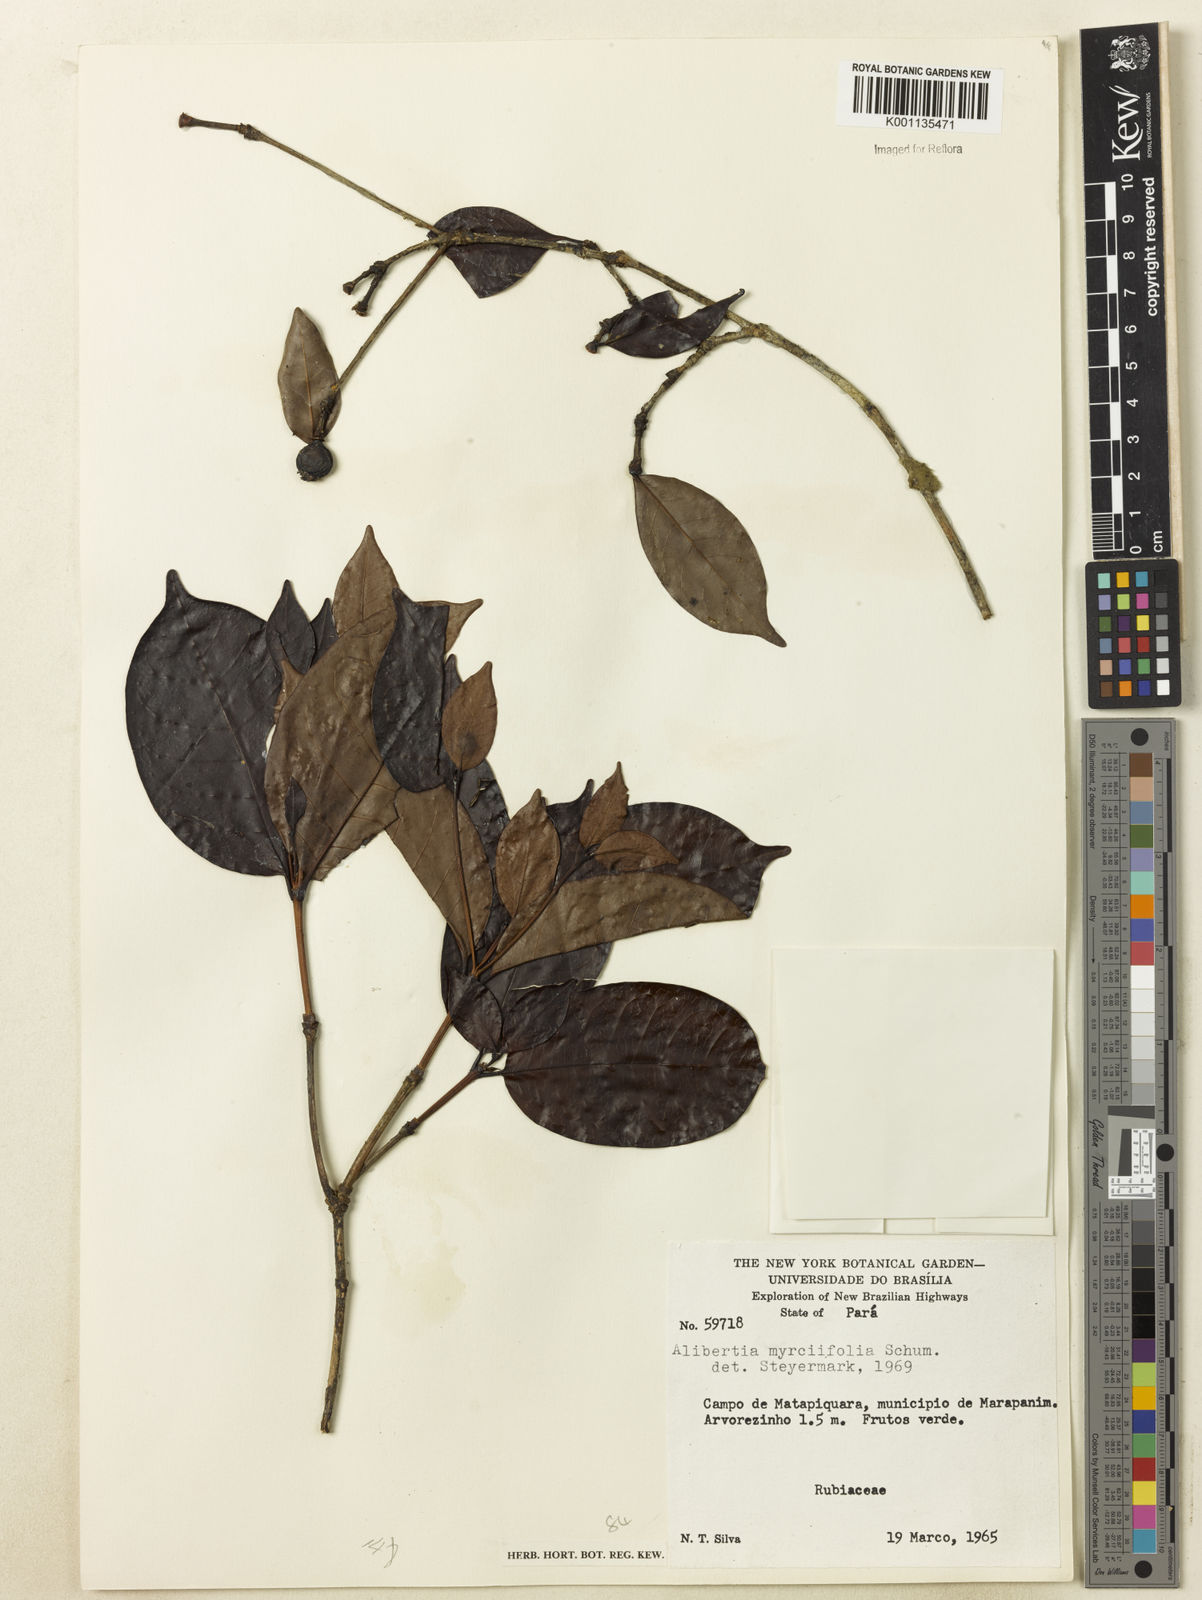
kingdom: Plantae
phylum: Tracheophyta
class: Magnoliopsida
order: Gentianales
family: Rubiaceae
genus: Cordiera
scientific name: Cordiera myrciifolia
